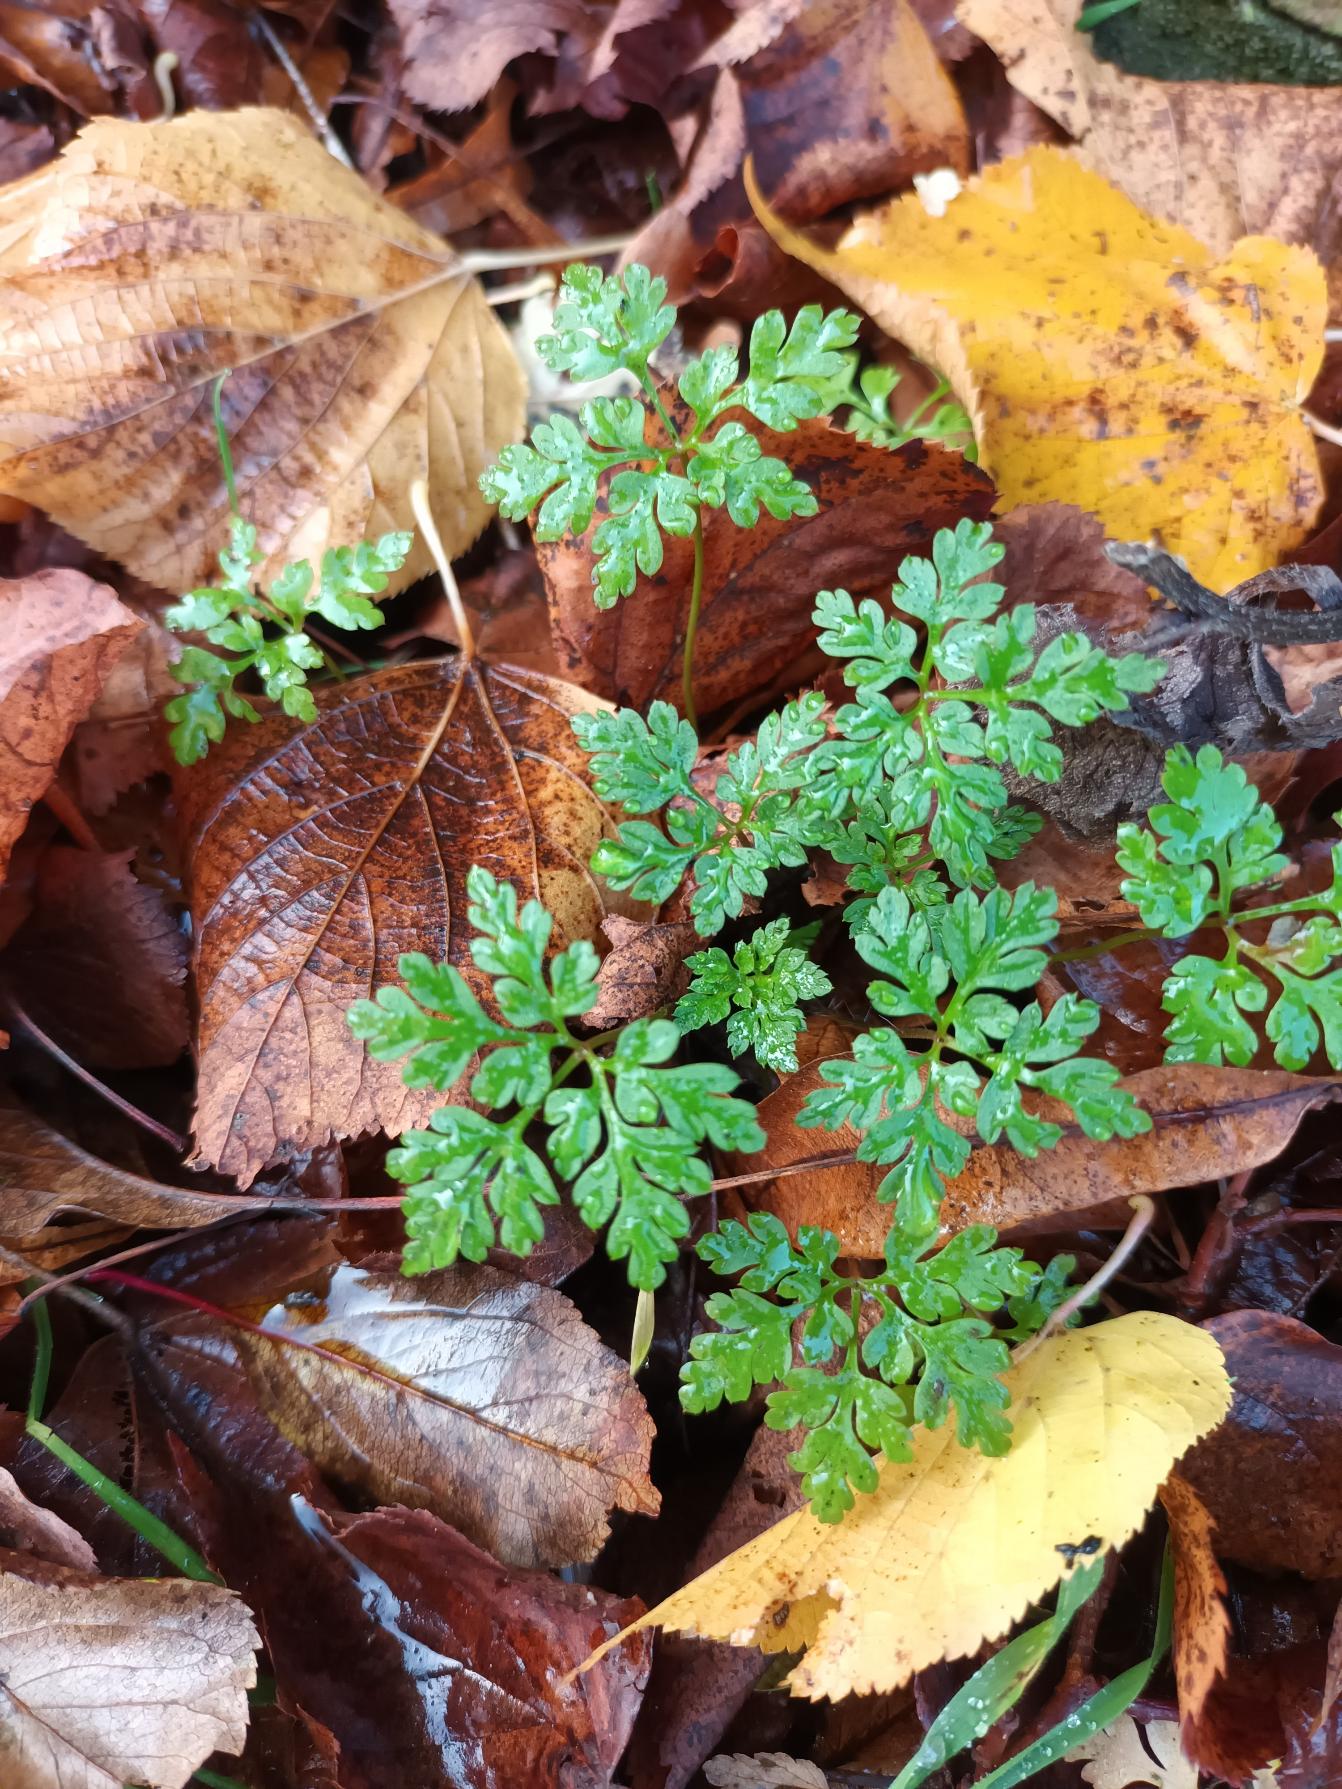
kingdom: Plantae
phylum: Tracheophyta
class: Magnoliopsida
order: Geraniales
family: Geraniaceae
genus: Geranium
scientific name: Geranium robertianum
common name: Stinkende storkenæb
